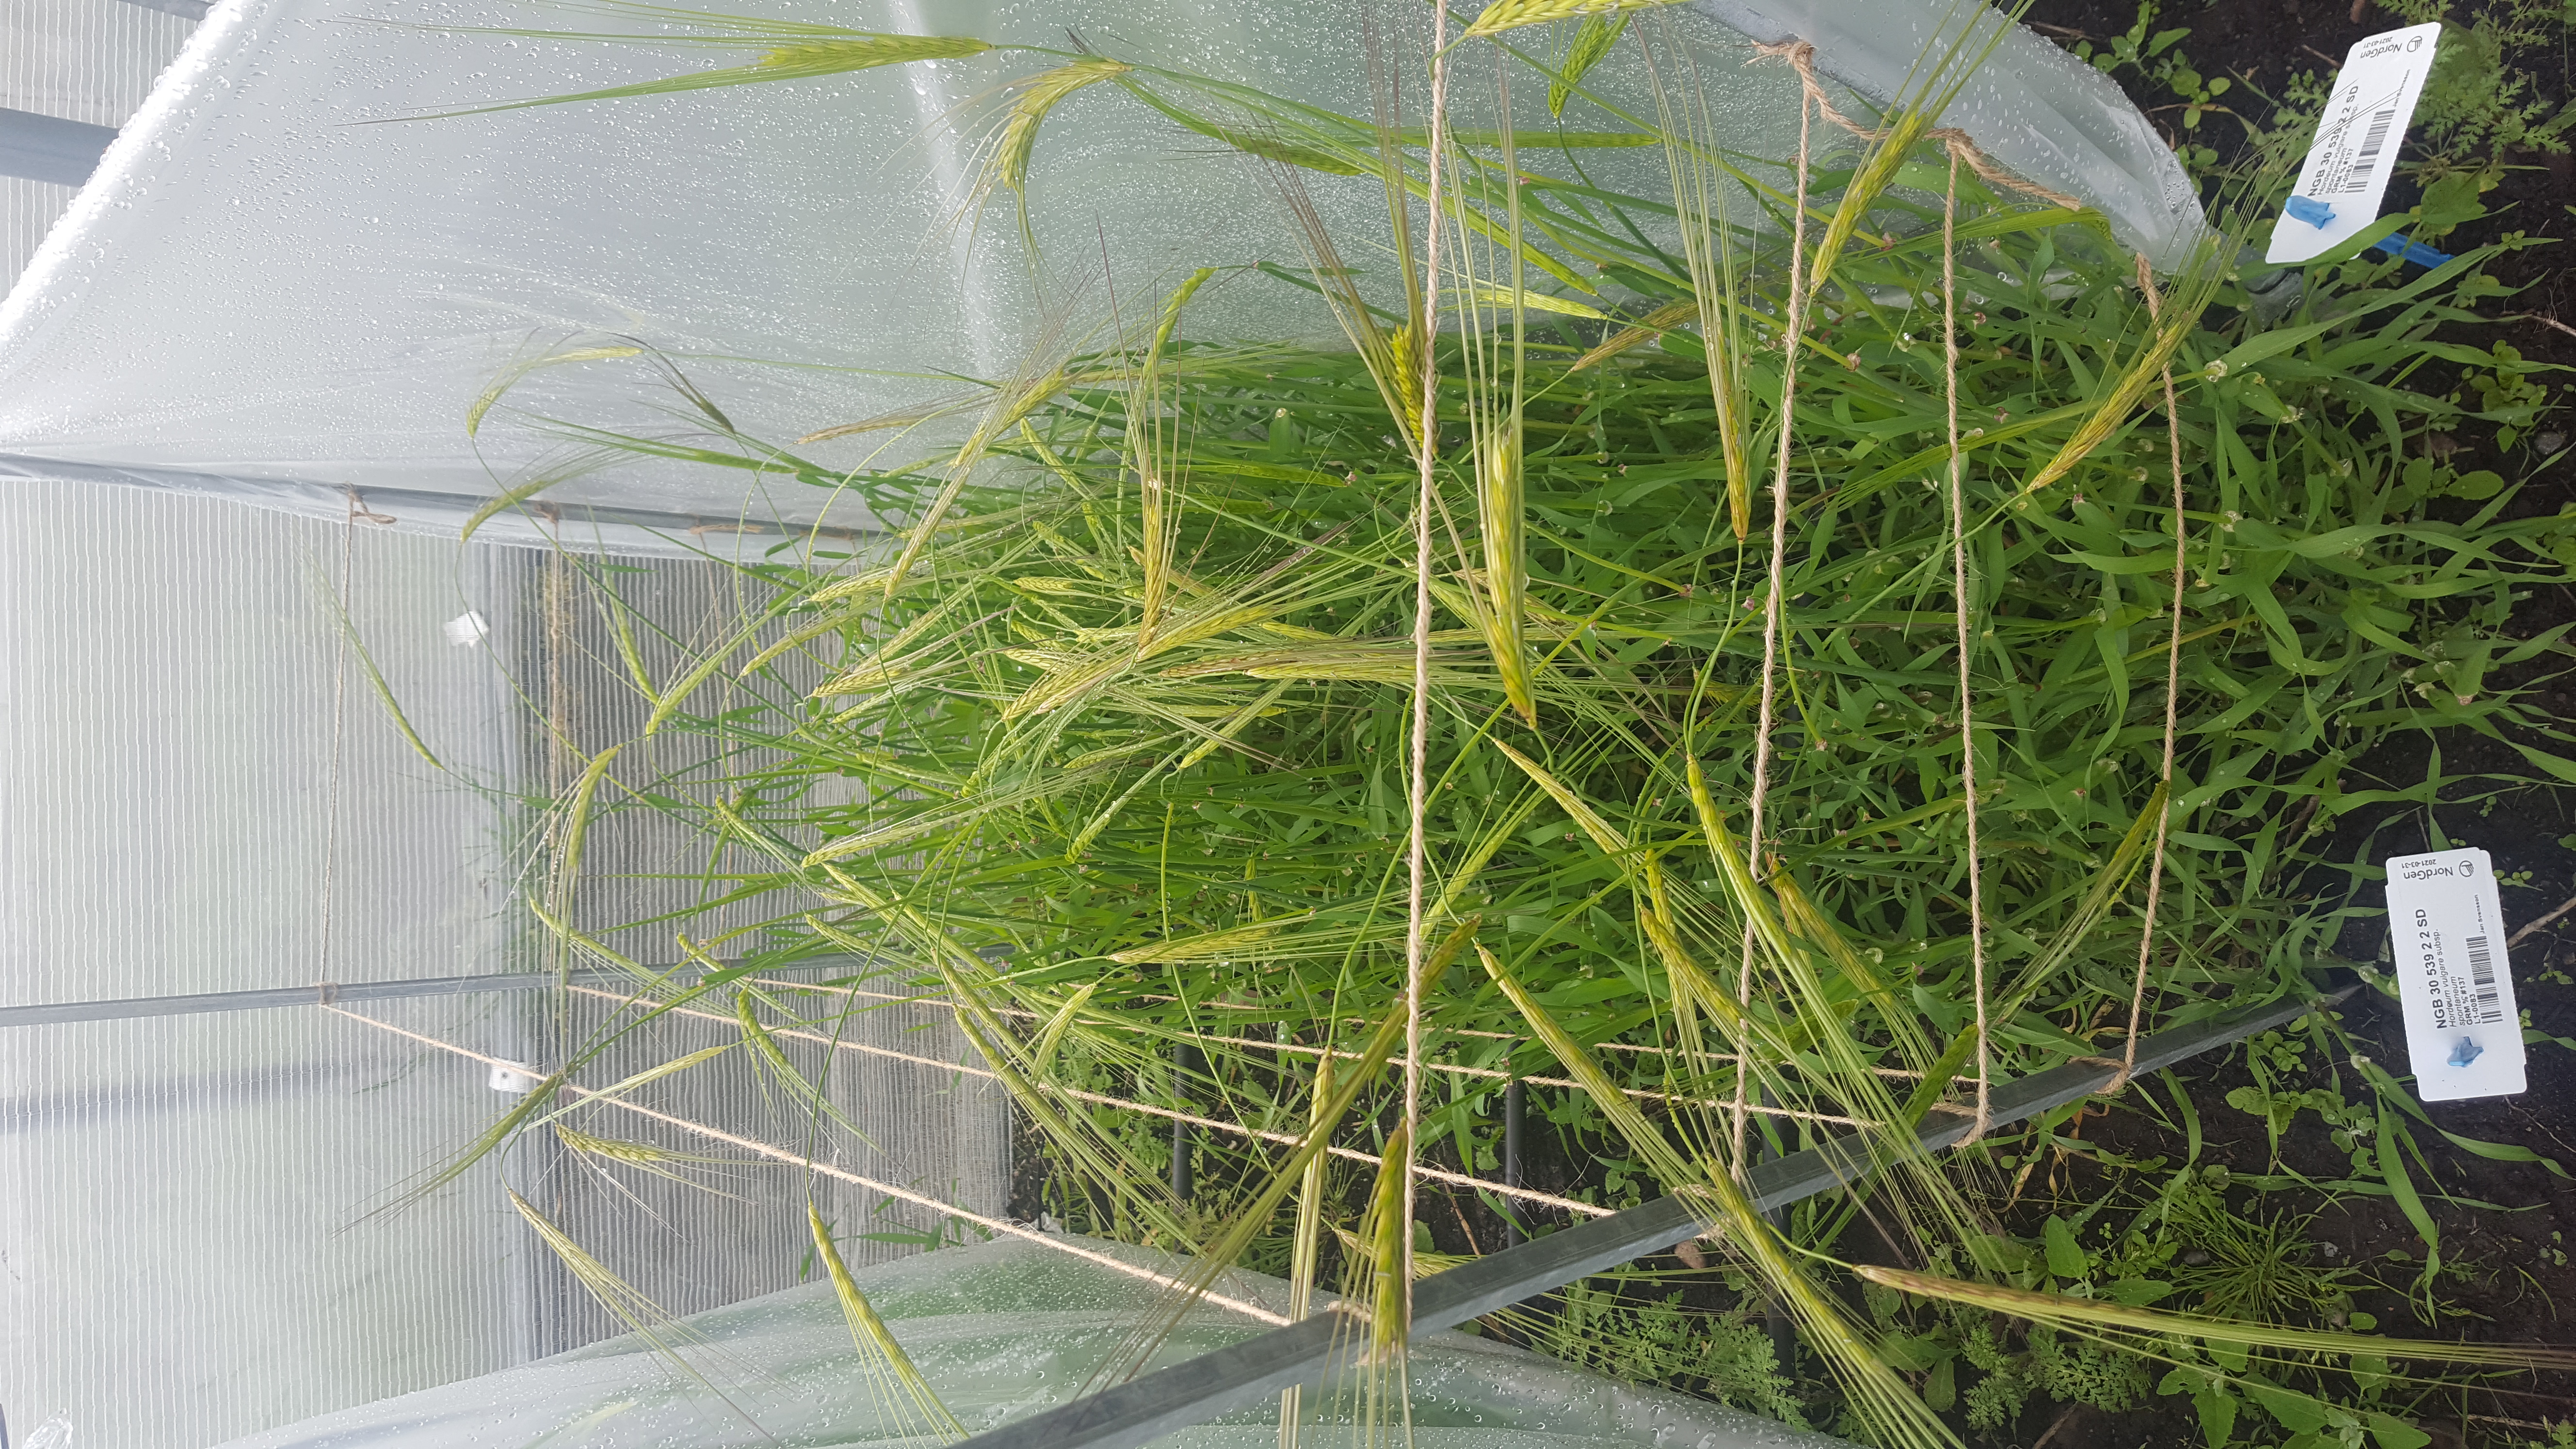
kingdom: Plantae
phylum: Tracheophyta
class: Liliopsida
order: Poales
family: Poaceae
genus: Hordeum
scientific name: Hordeum spontaneum
